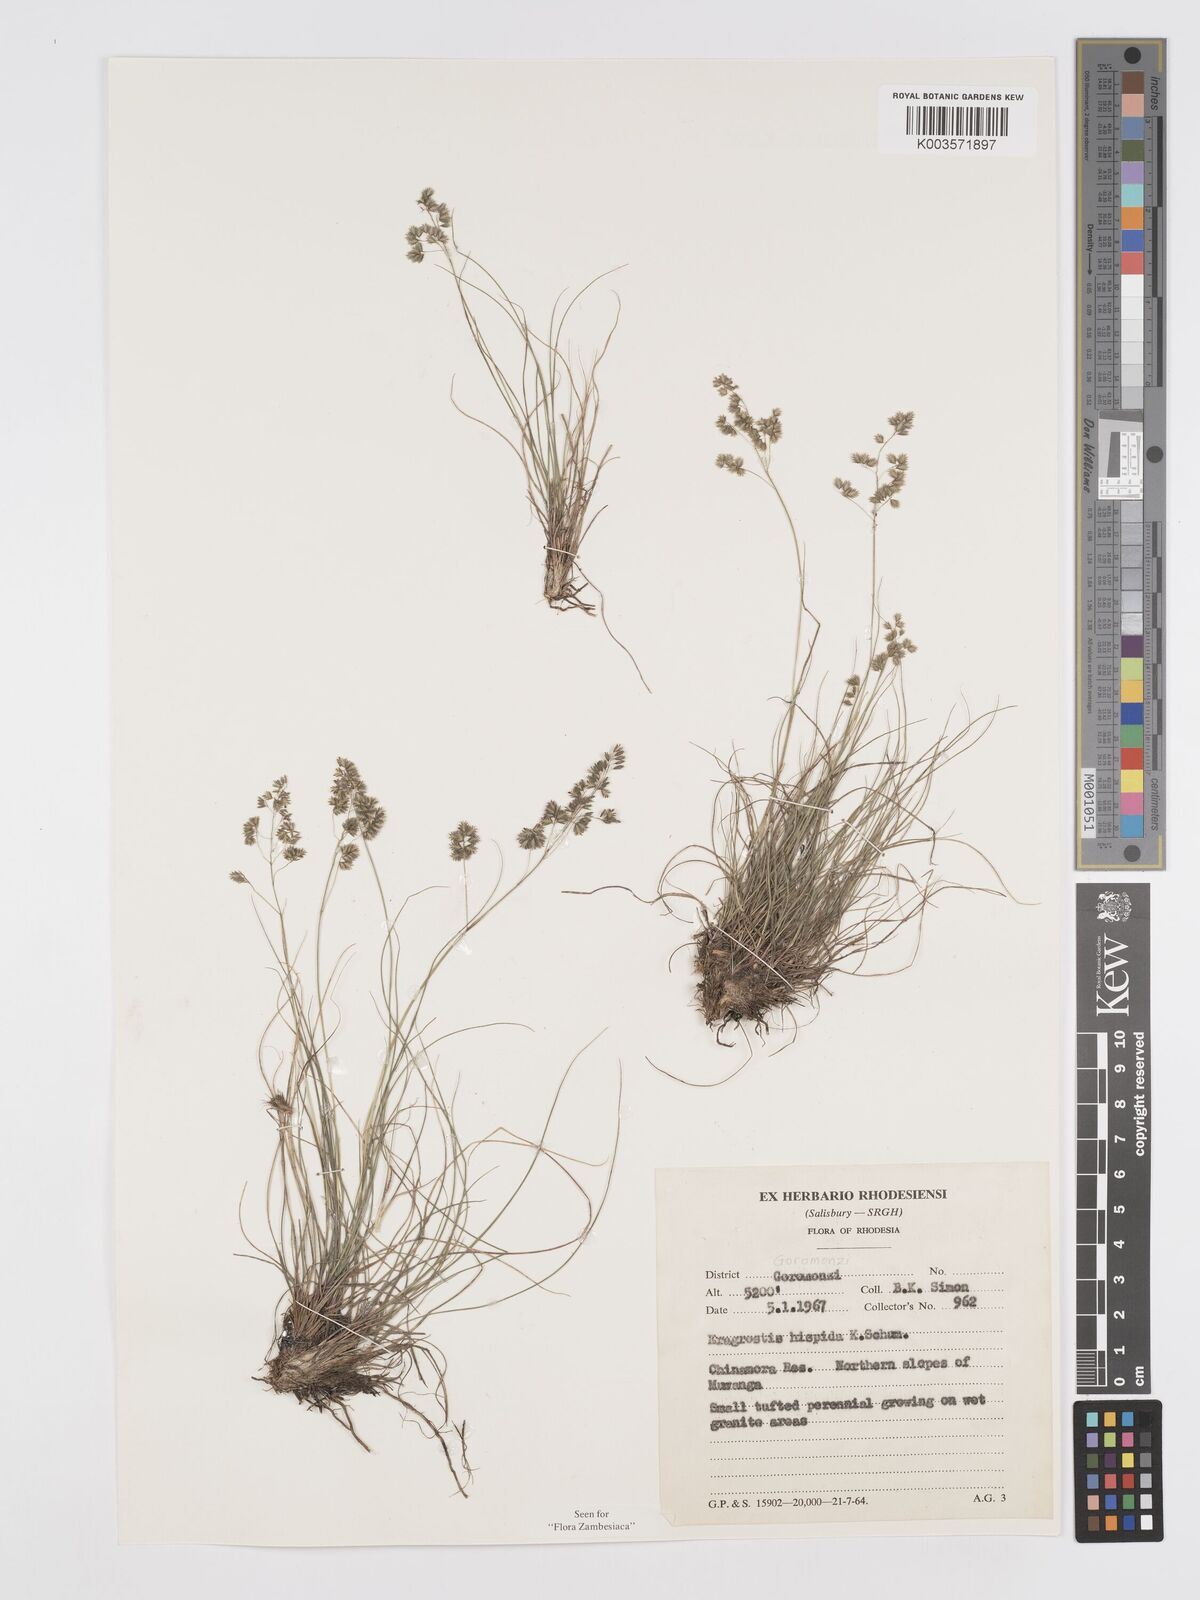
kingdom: Plantae
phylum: Tracheophyta
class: Liliopsida
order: Poales
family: Poaceae
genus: Eragrostis
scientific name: Eragrostis hispida
